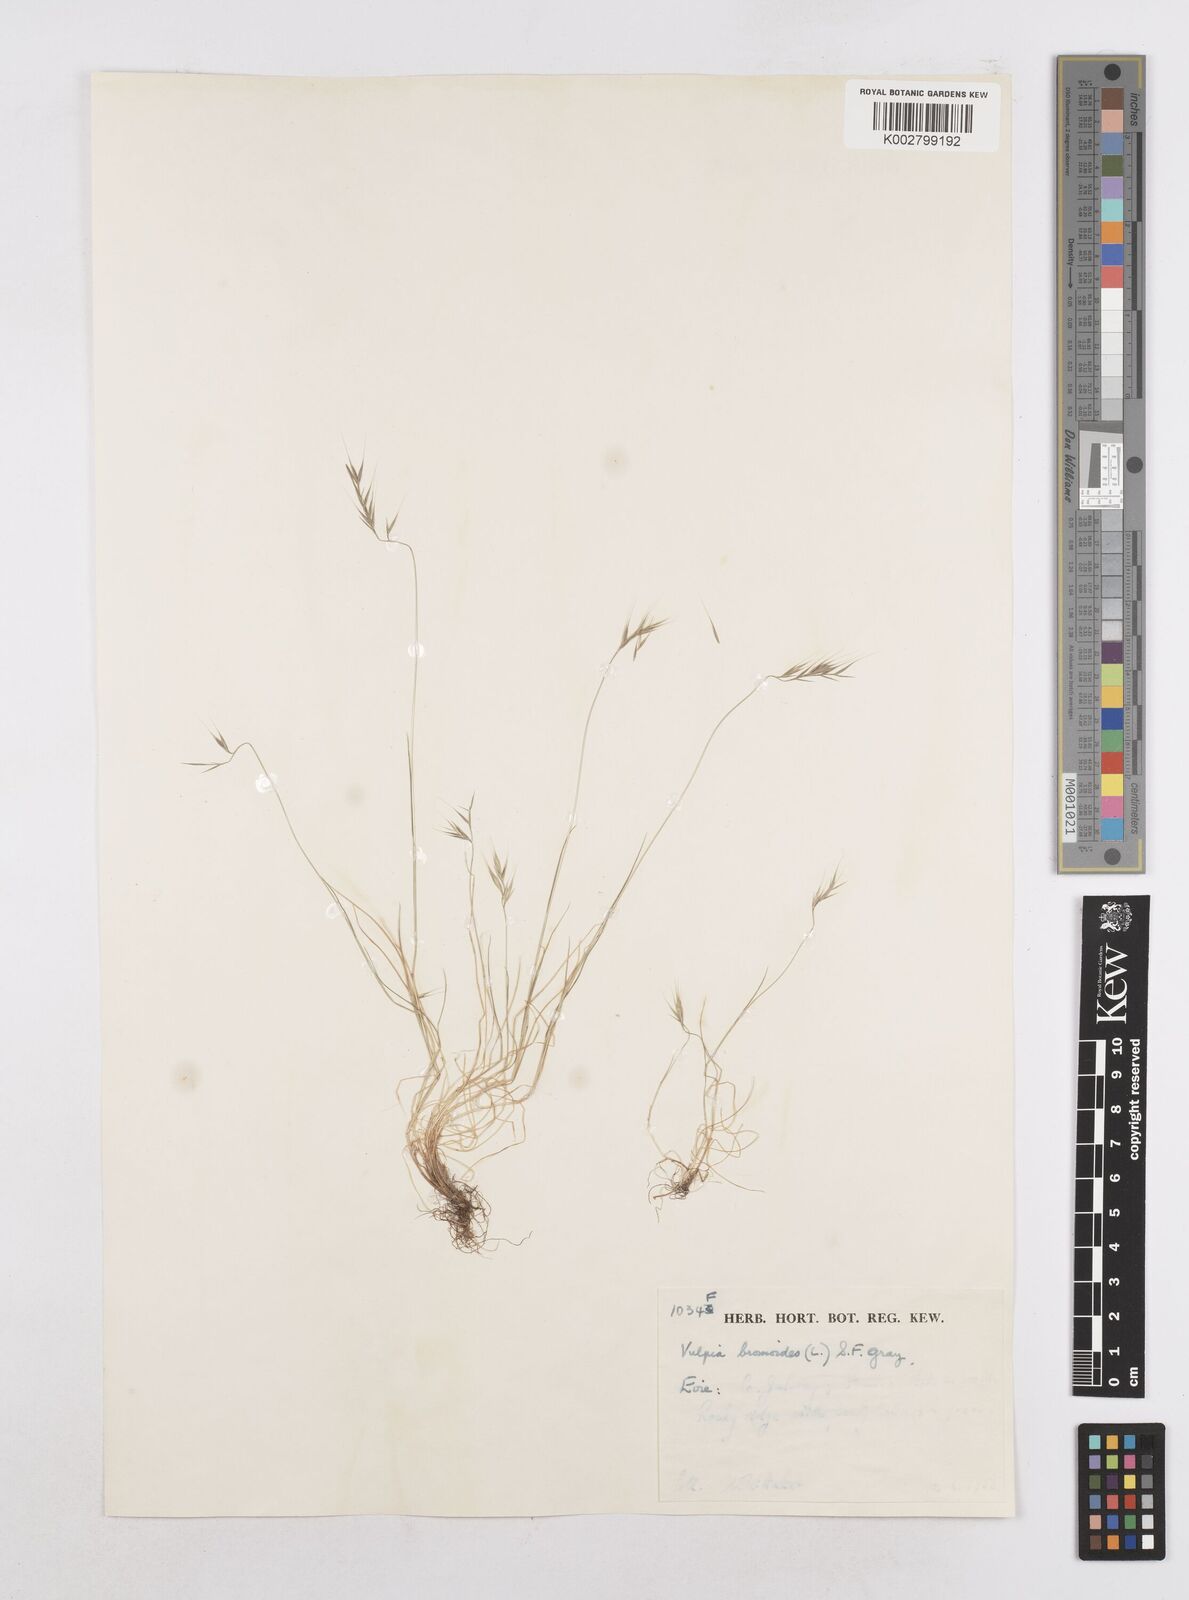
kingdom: Plantae
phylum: Tracheophyta
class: Liliopsida
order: Poales
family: Poaceae
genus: Festuca
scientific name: Festuca bromoides
